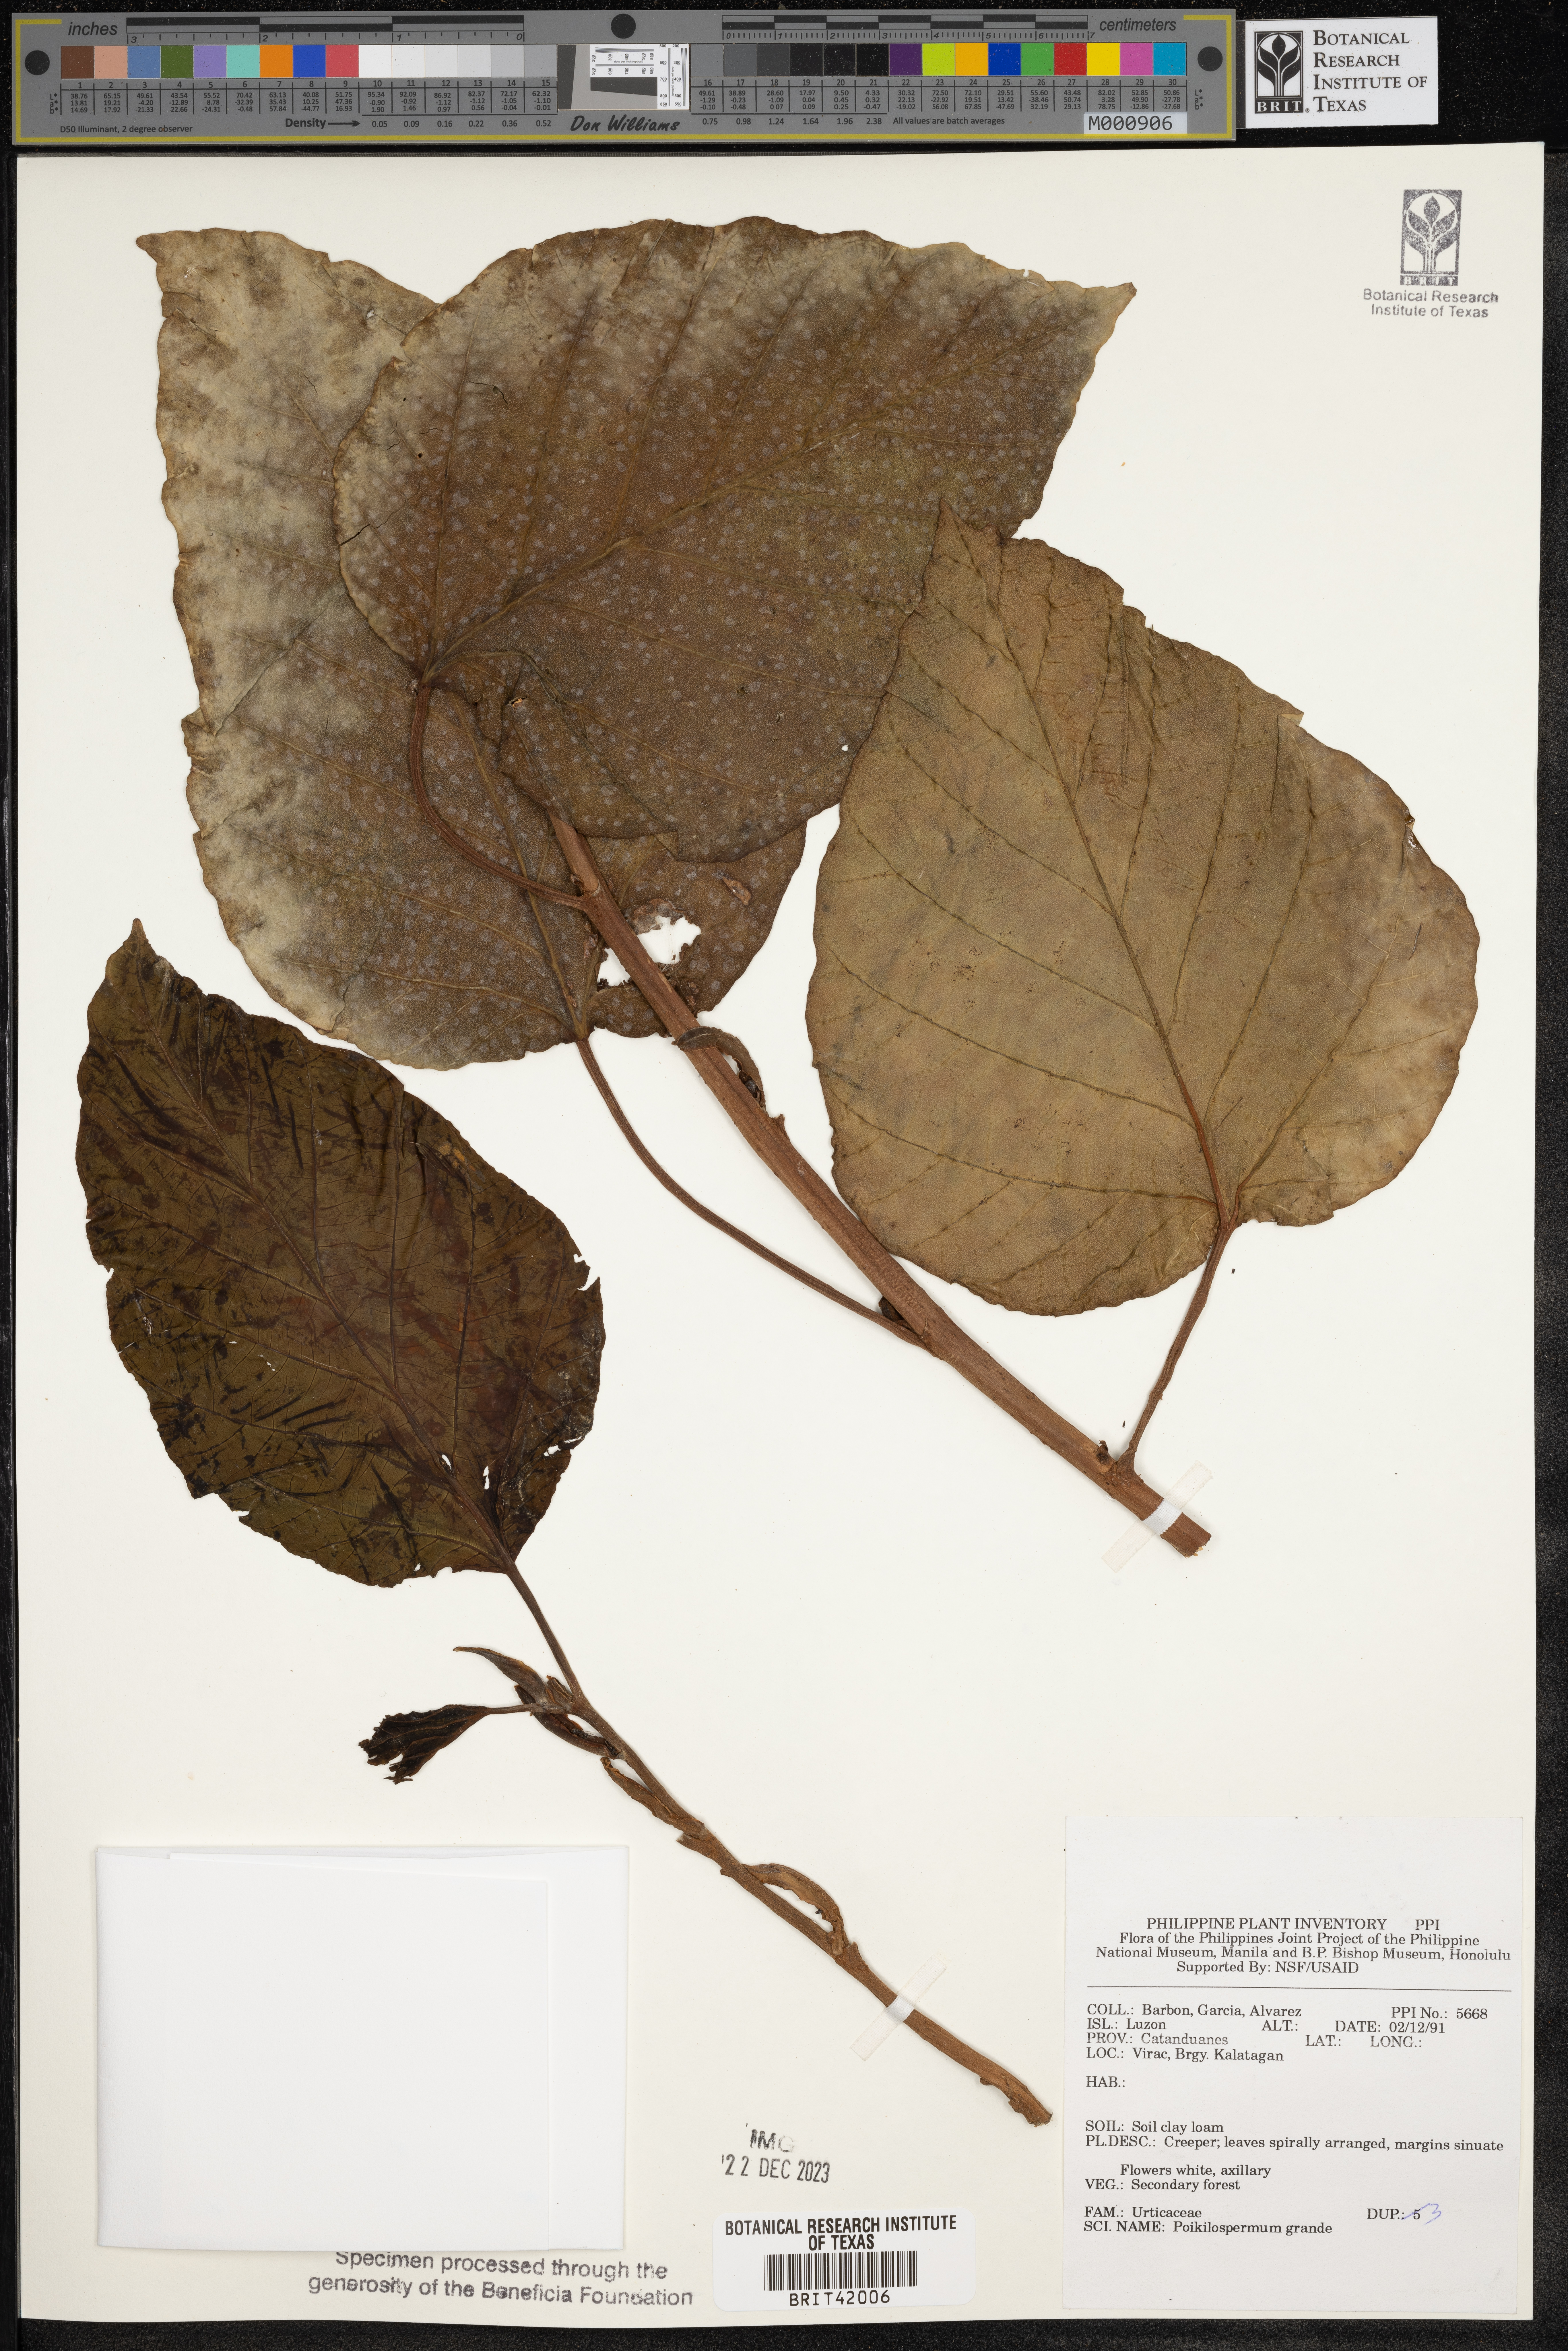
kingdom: Plantae
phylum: Tracheophyta
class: Magnoliopsida
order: Rosales
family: Urticaceae
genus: Poikilospermum
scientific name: Poikilospermum acuminatum
